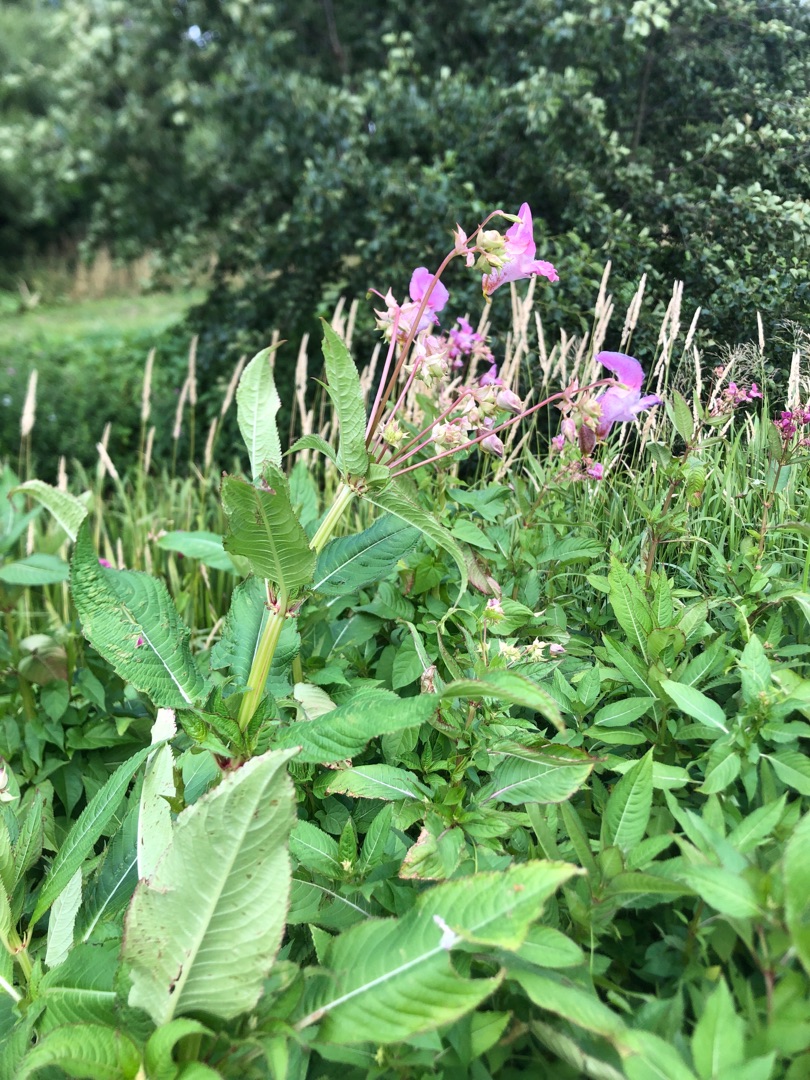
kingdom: Plantae
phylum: Tracheophyta
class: Magnoliopsida
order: Ericales
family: Balsaminaceae
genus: Impatiens
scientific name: Impatiens glandulifera
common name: Kæmpe-balsamin
